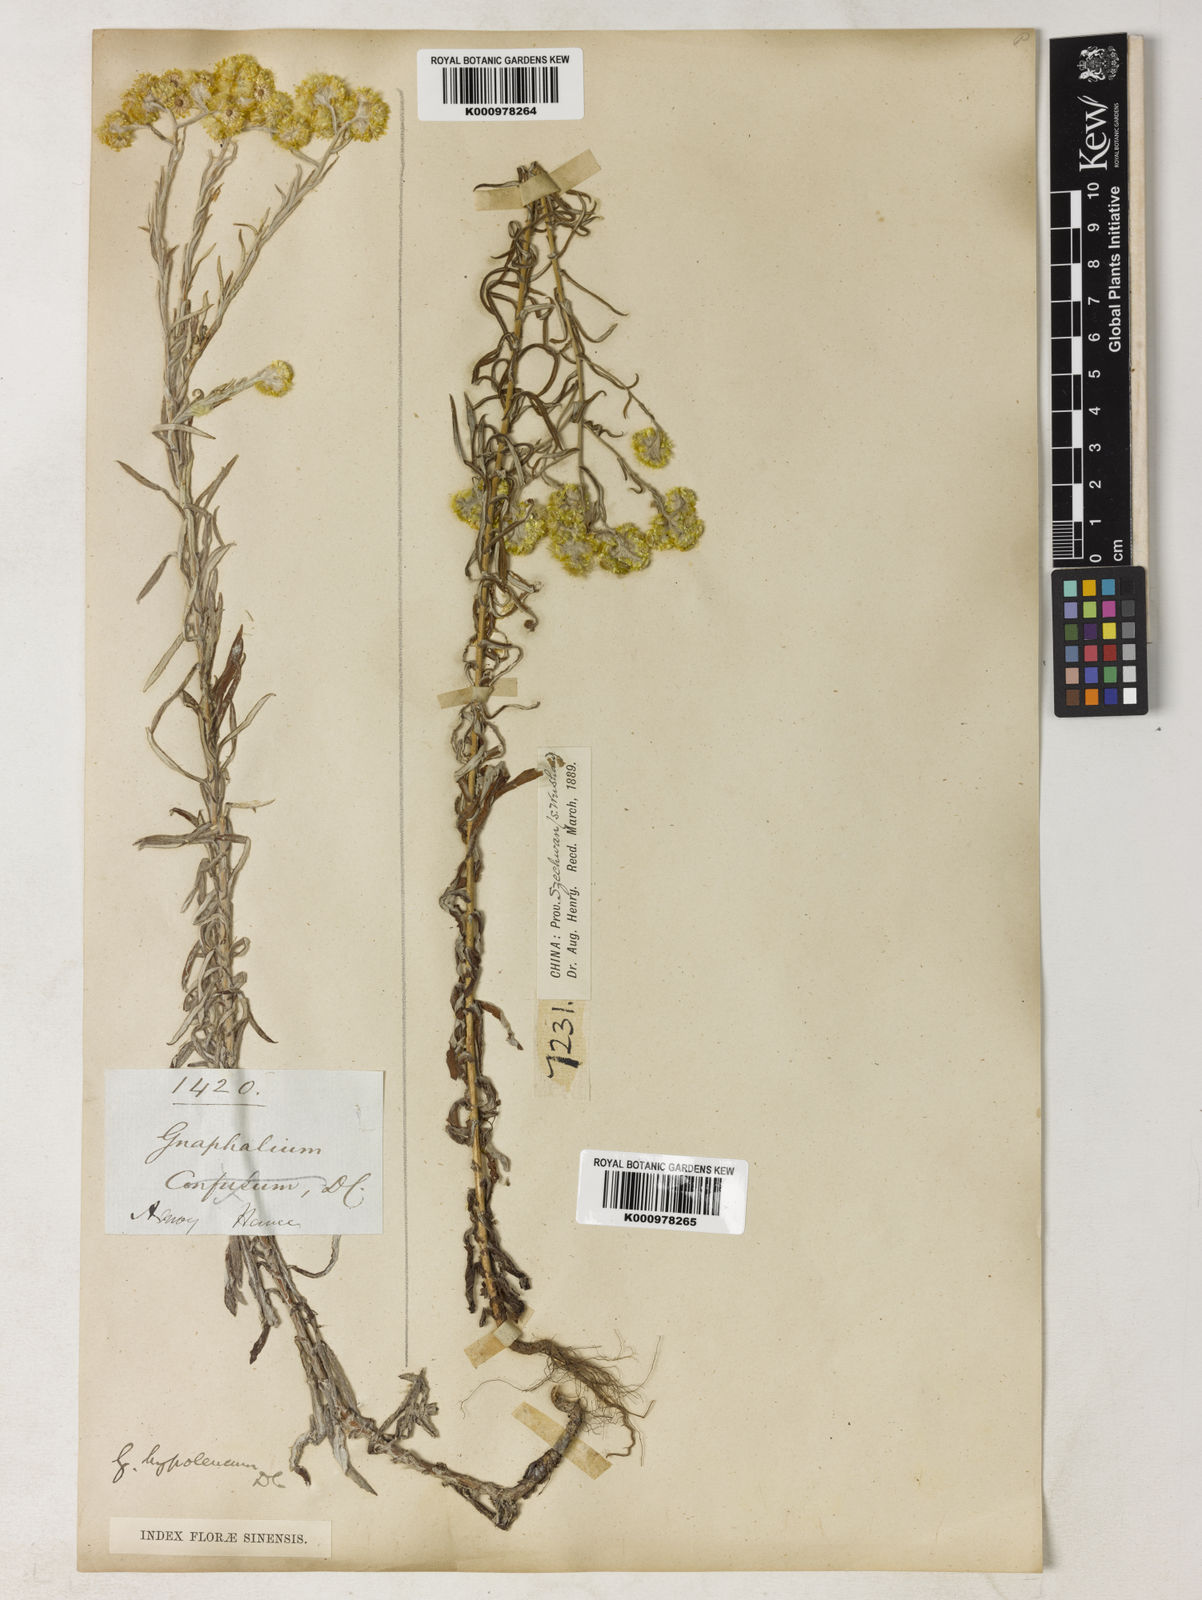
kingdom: Plantae
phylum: Tracheophyta
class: Magnoliopsida
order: Asterales
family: Asteraceae
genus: Pseudognaphalium
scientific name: Pseudognaphalium hypoleucum
